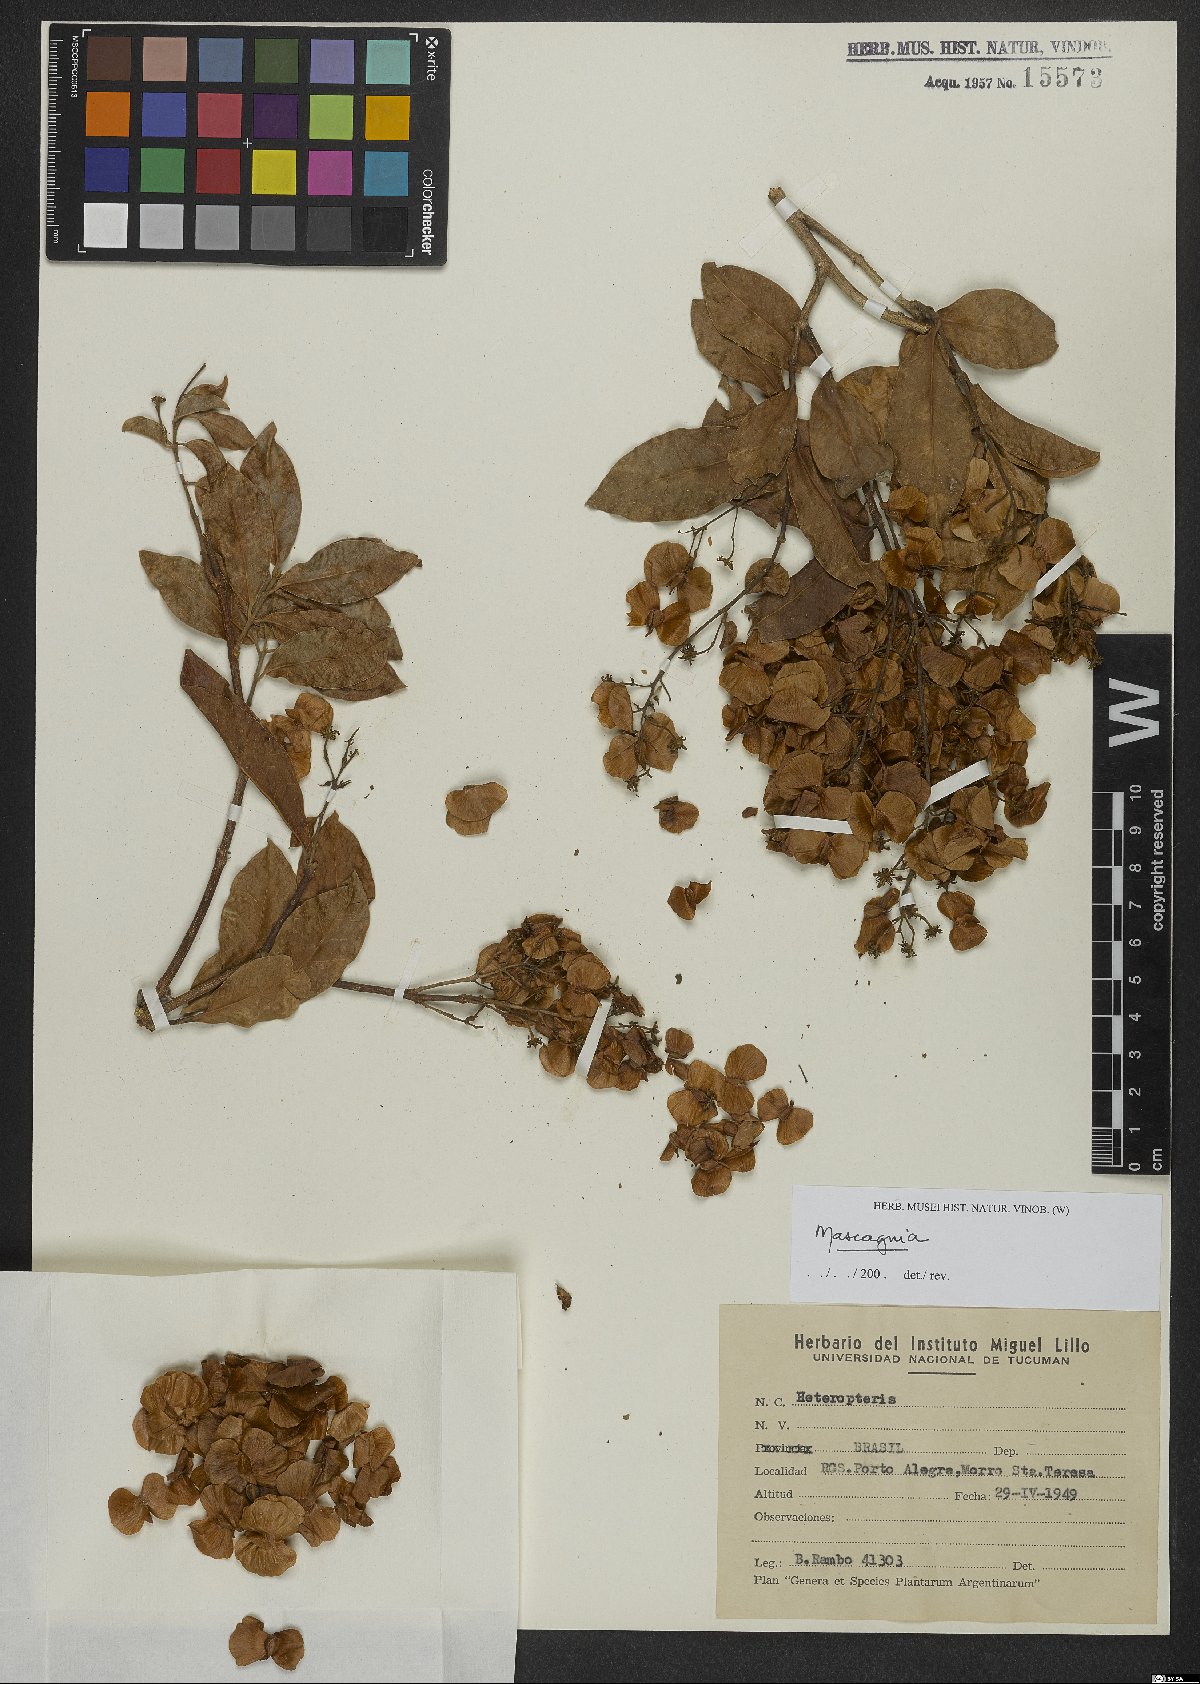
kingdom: Plantae
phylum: Tracheophyta
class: Magnoliopsida
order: Malpighiales
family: Malpighiaceae
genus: Mascagnia
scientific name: Mascagnia
